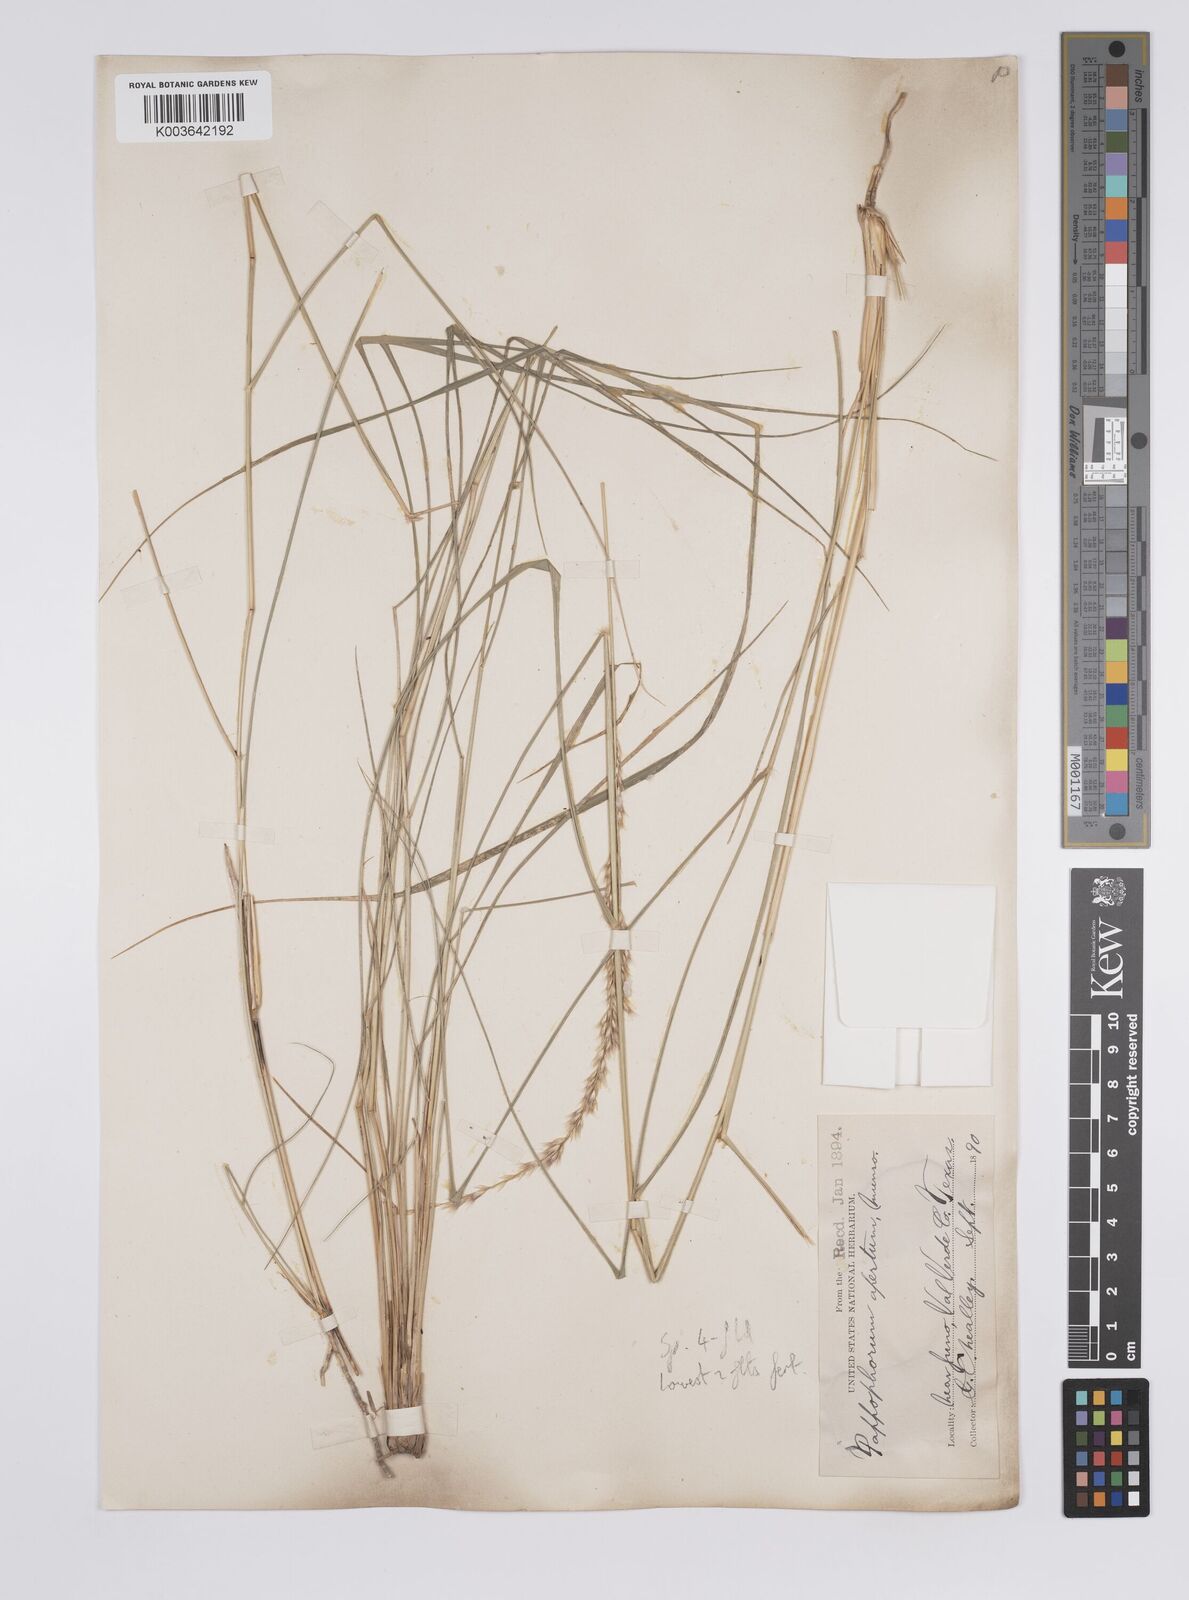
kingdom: Plantae
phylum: Tracheophyta
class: Liliopsida
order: Poales
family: Poaceae
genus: Pappophorum
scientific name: Pappophorum bicolor
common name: Pink pappus grass
